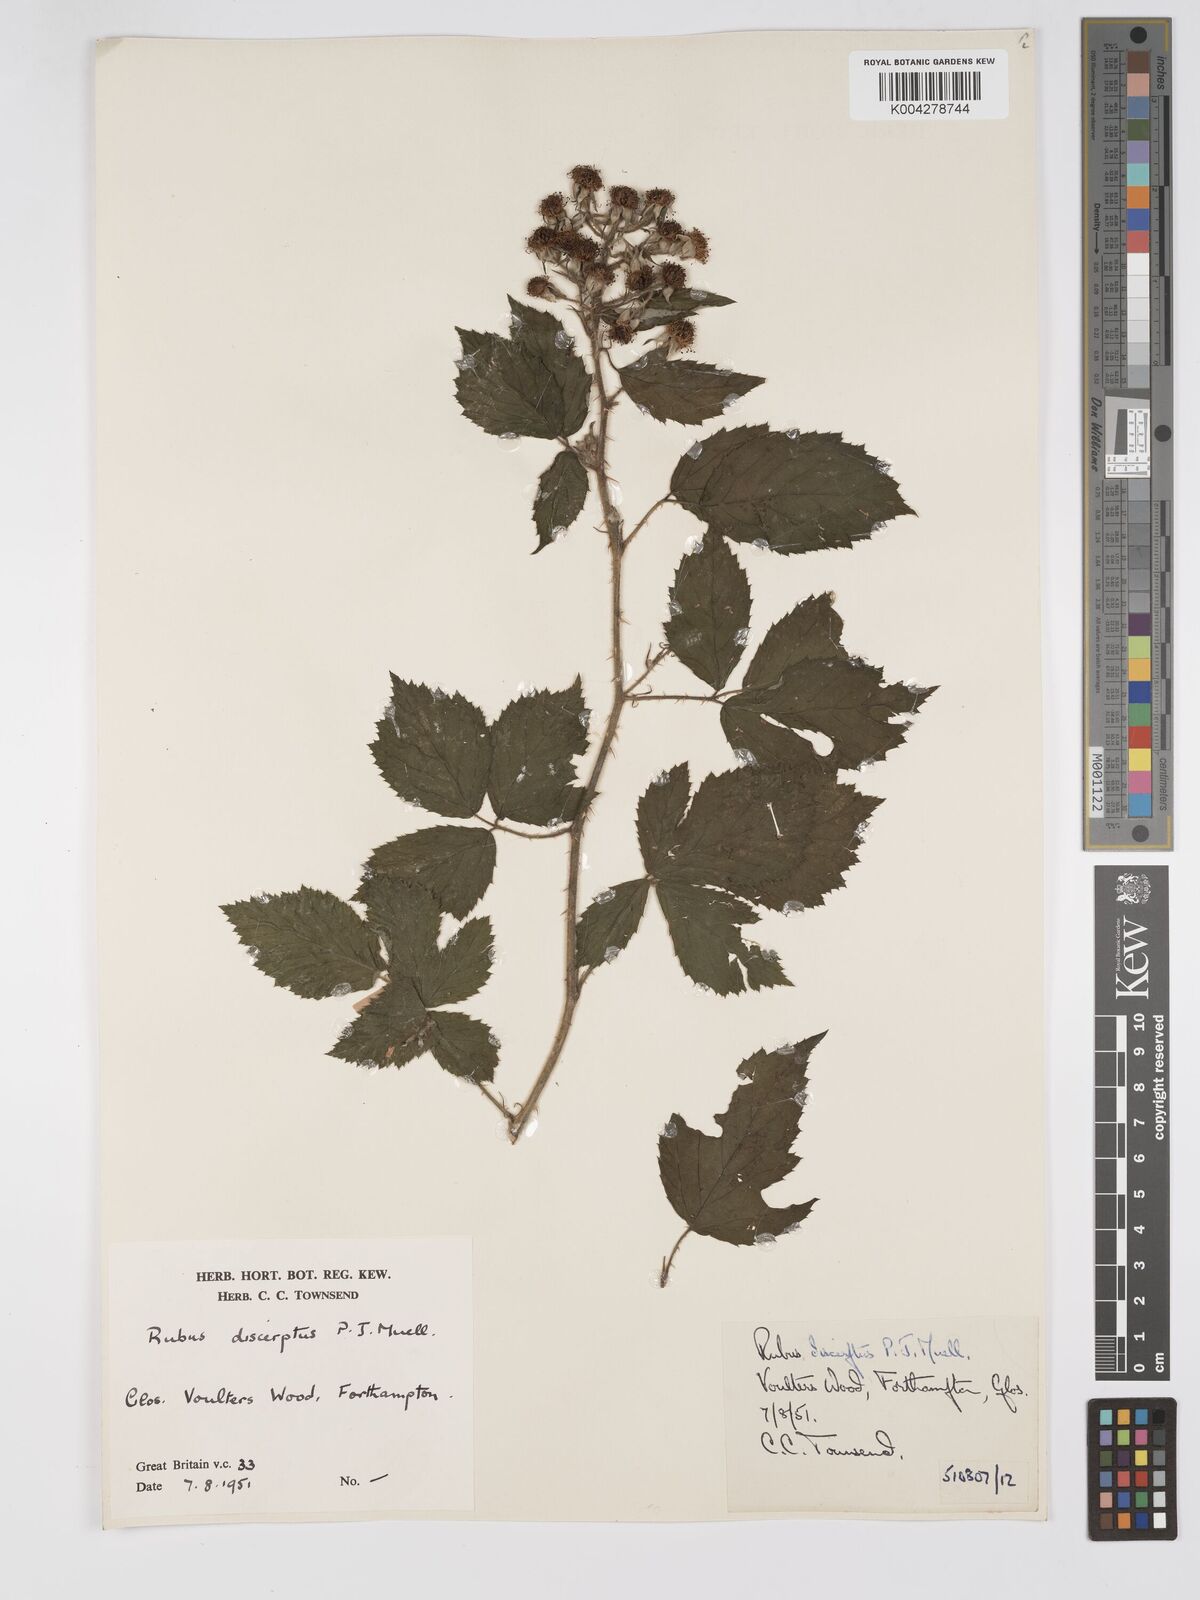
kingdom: Plantae
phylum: Tracheophyta
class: Magnoliopsida
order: Rosales
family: Rosaceae
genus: Rubus
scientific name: Rubus echinatus
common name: Echinate bramble
